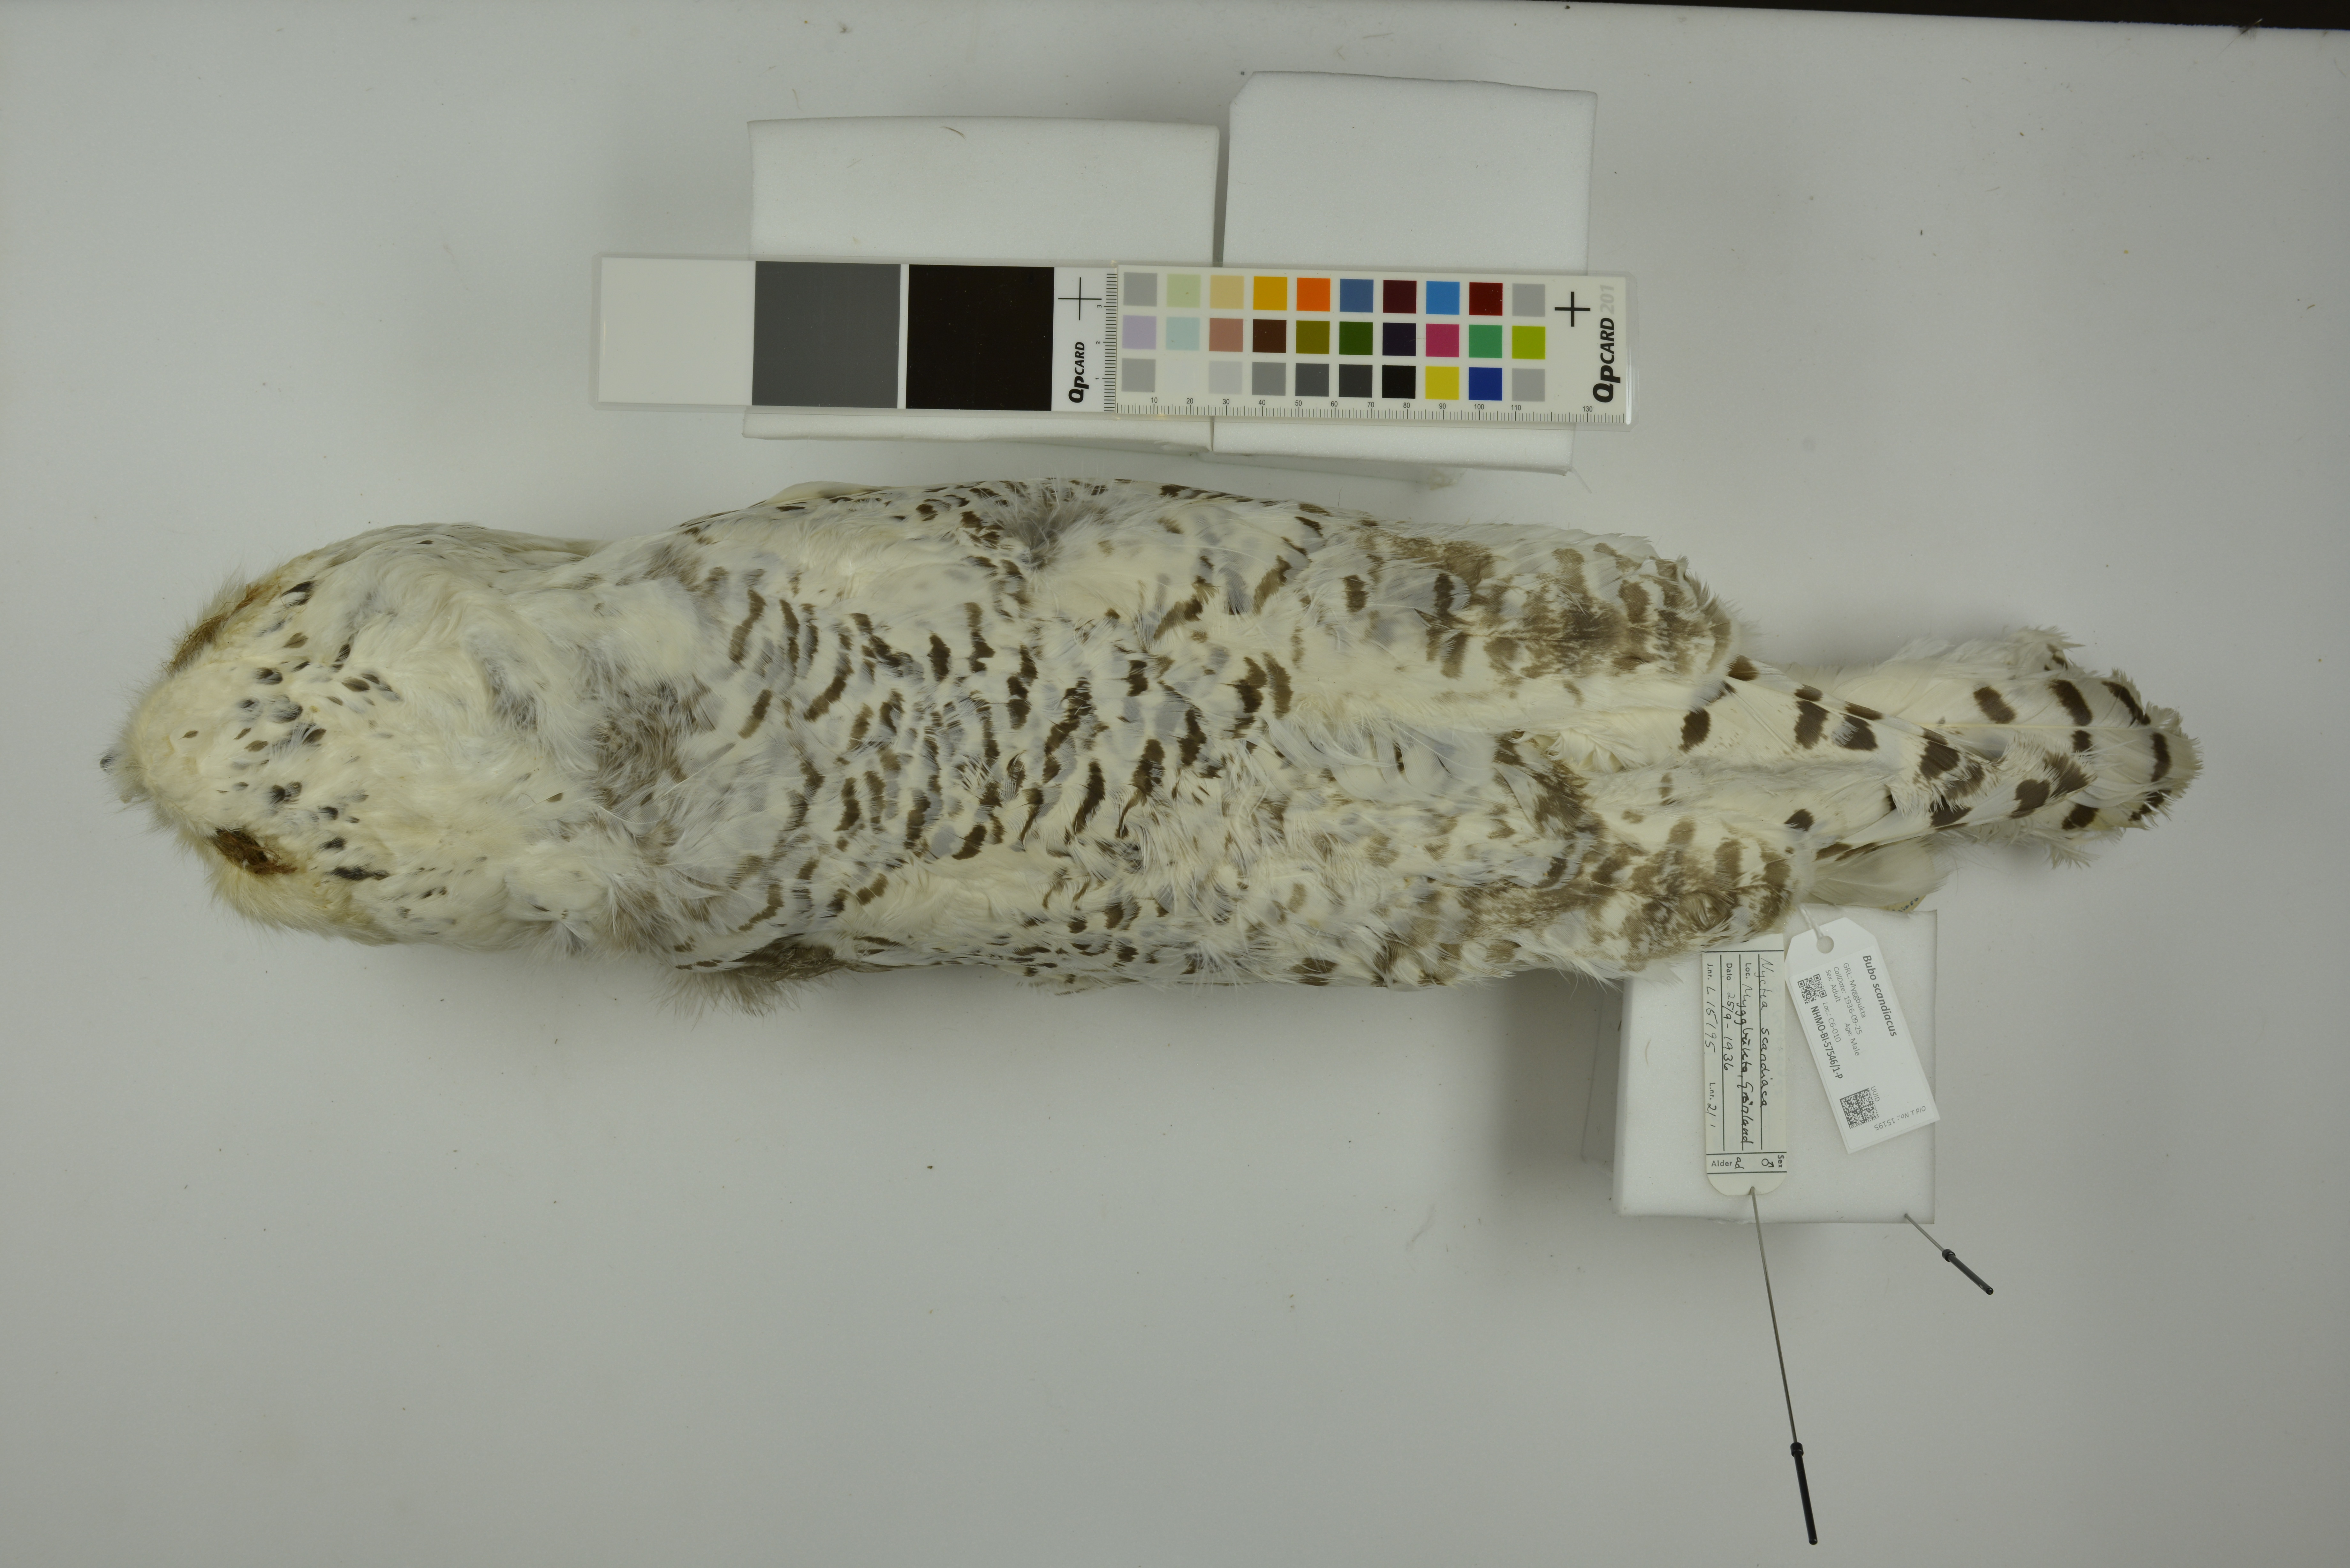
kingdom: Animalia
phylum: Chordata
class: Aves
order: Strigiformes
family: Strigidae
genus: Bubo
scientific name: Bubo scandiacus
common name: Snowy owl
